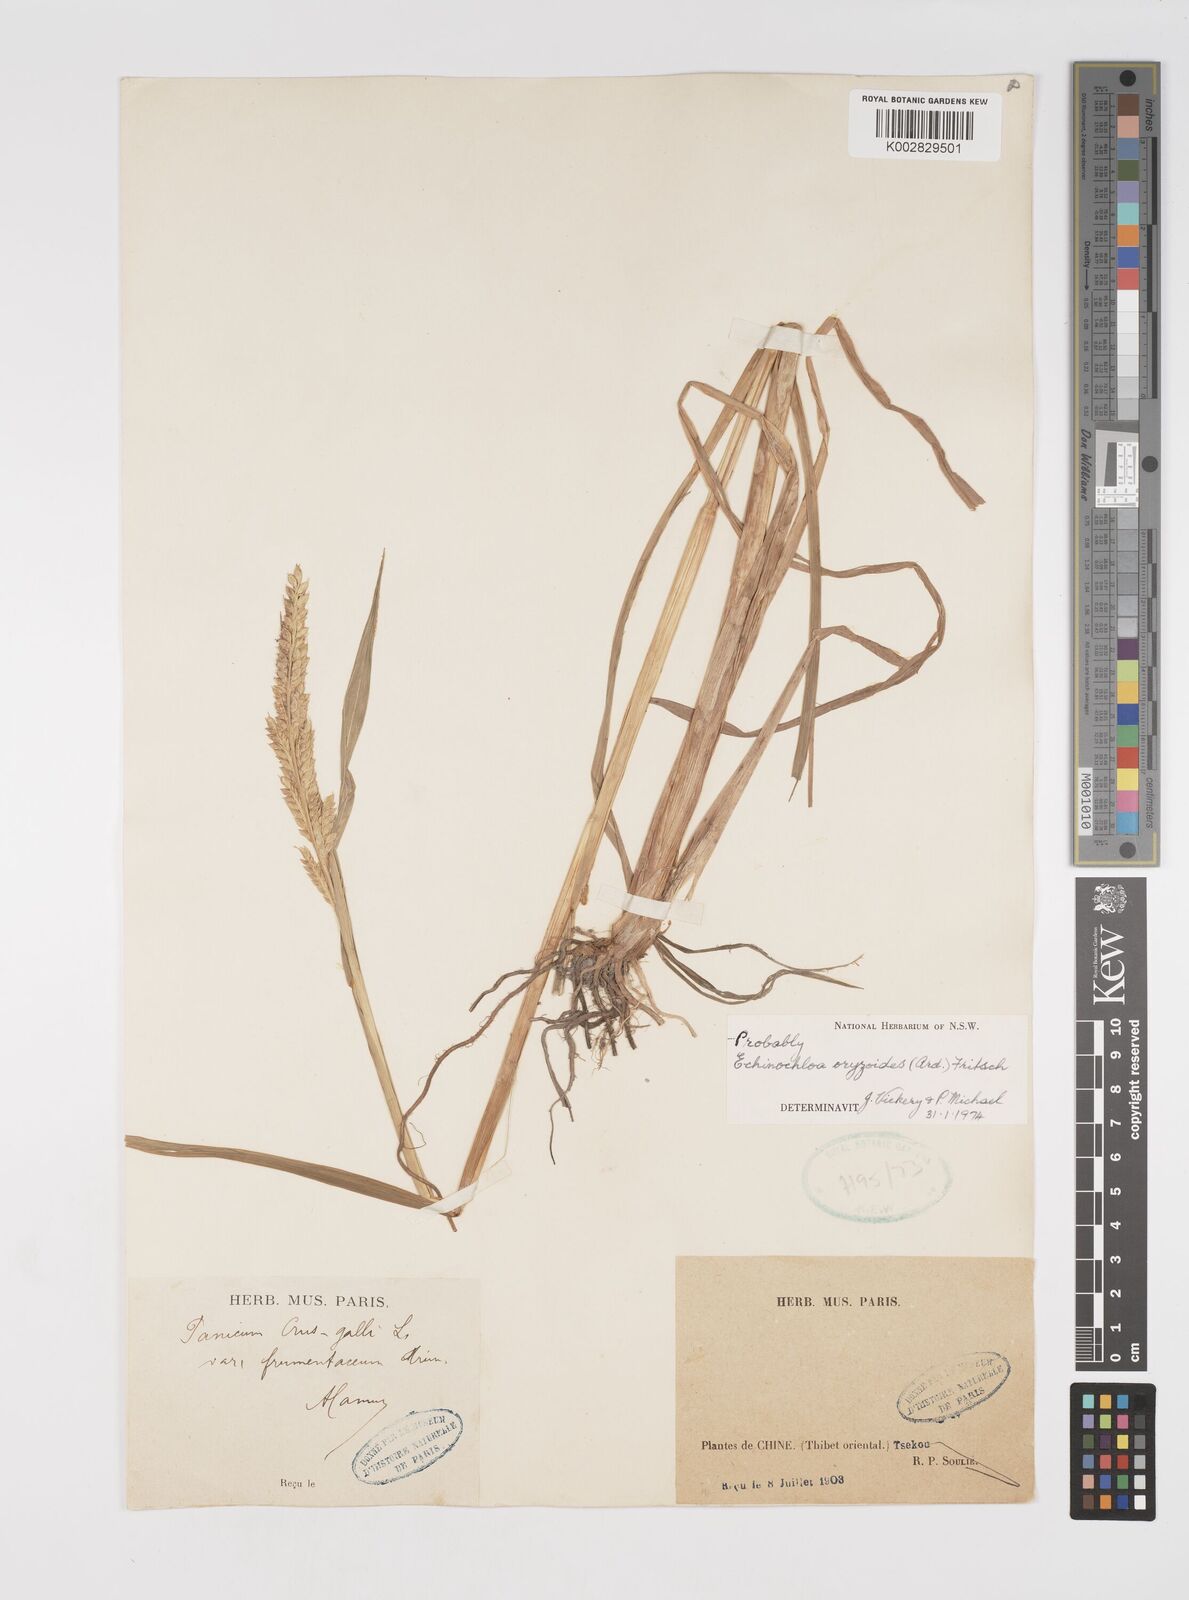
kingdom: Plantae
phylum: Tracheophyta
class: Liliopsida
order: Poales
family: Poaceae
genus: Echinochloa
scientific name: Echinochloa frumentacea
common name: Billion-dollar grass
